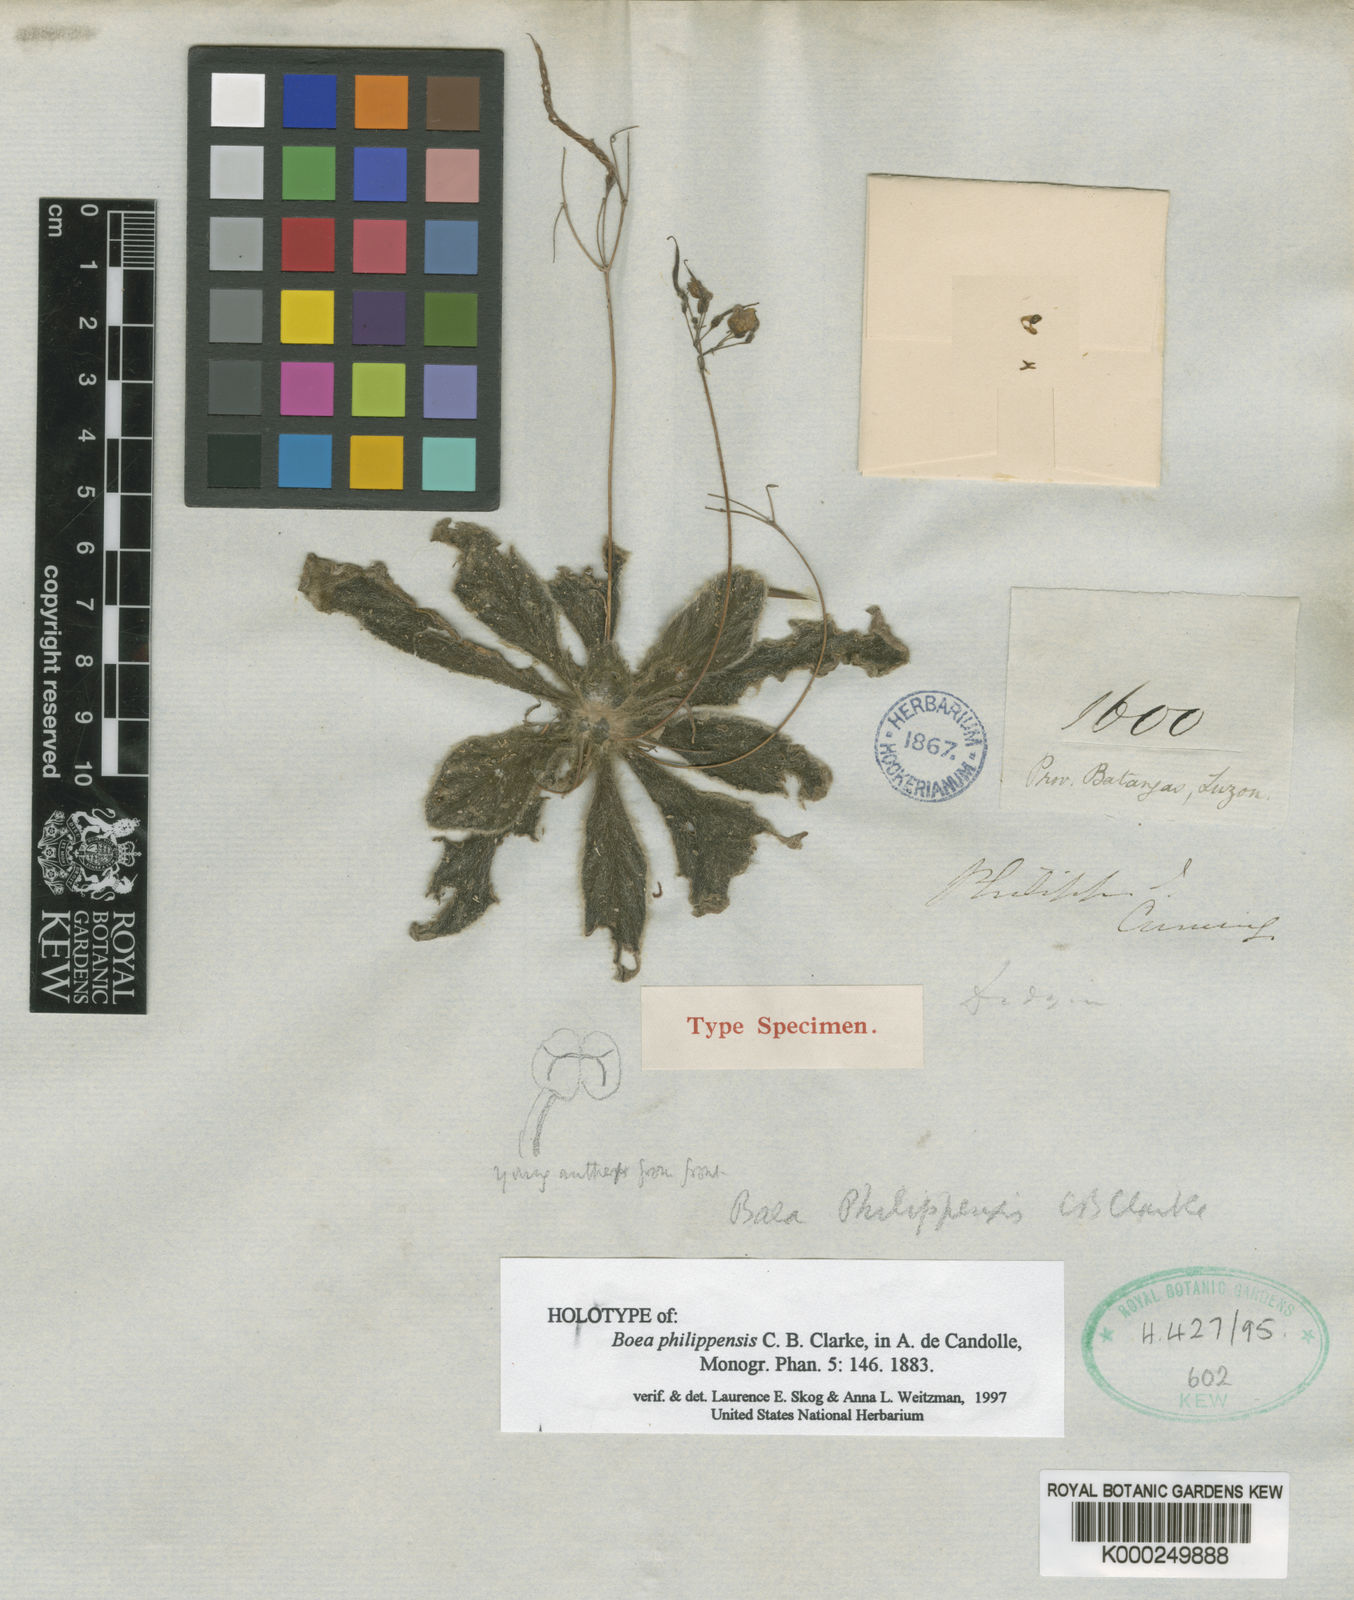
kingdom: Plantae
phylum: Tracheophyta
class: Magnoliopsida
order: Lamiales
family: Gesneriaceae
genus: Dorcoceras
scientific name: Dorcoceras philippense
